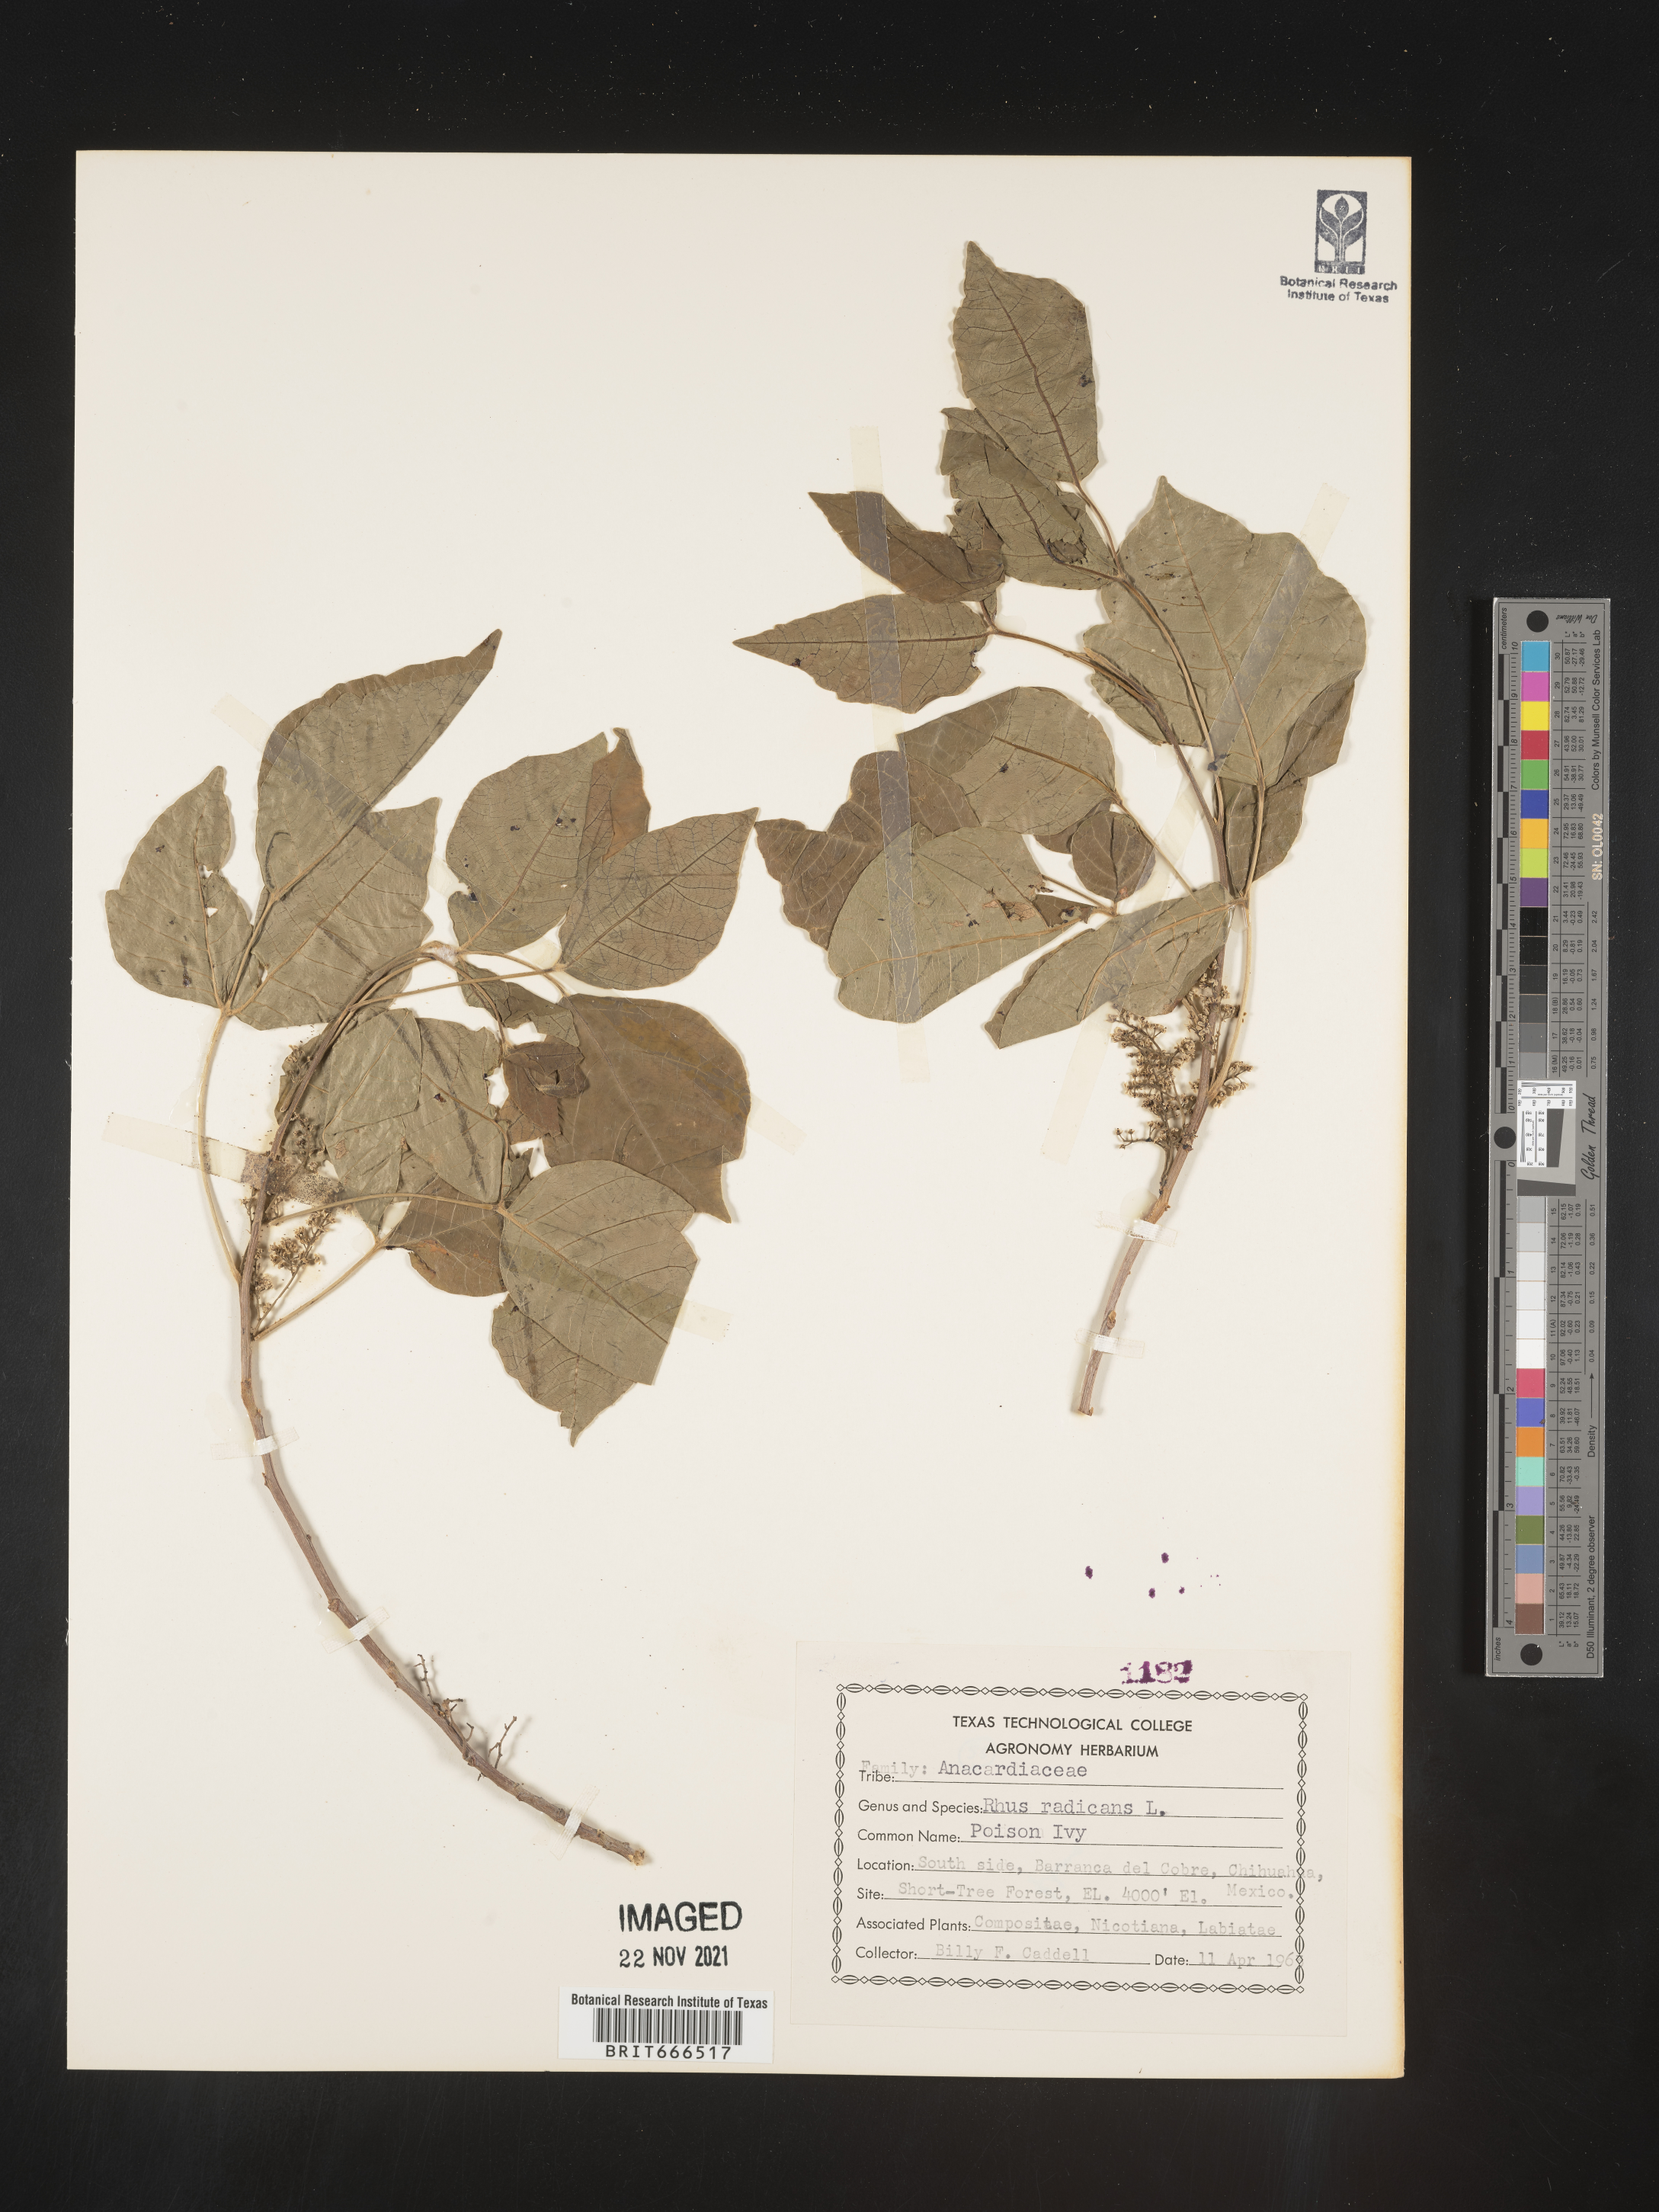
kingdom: Plantae
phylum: Tracheophyta
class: Magnoliopsida
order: Sapindales
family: Anacardiaceae
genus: Toxicodendron
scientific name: Toxicodendron
